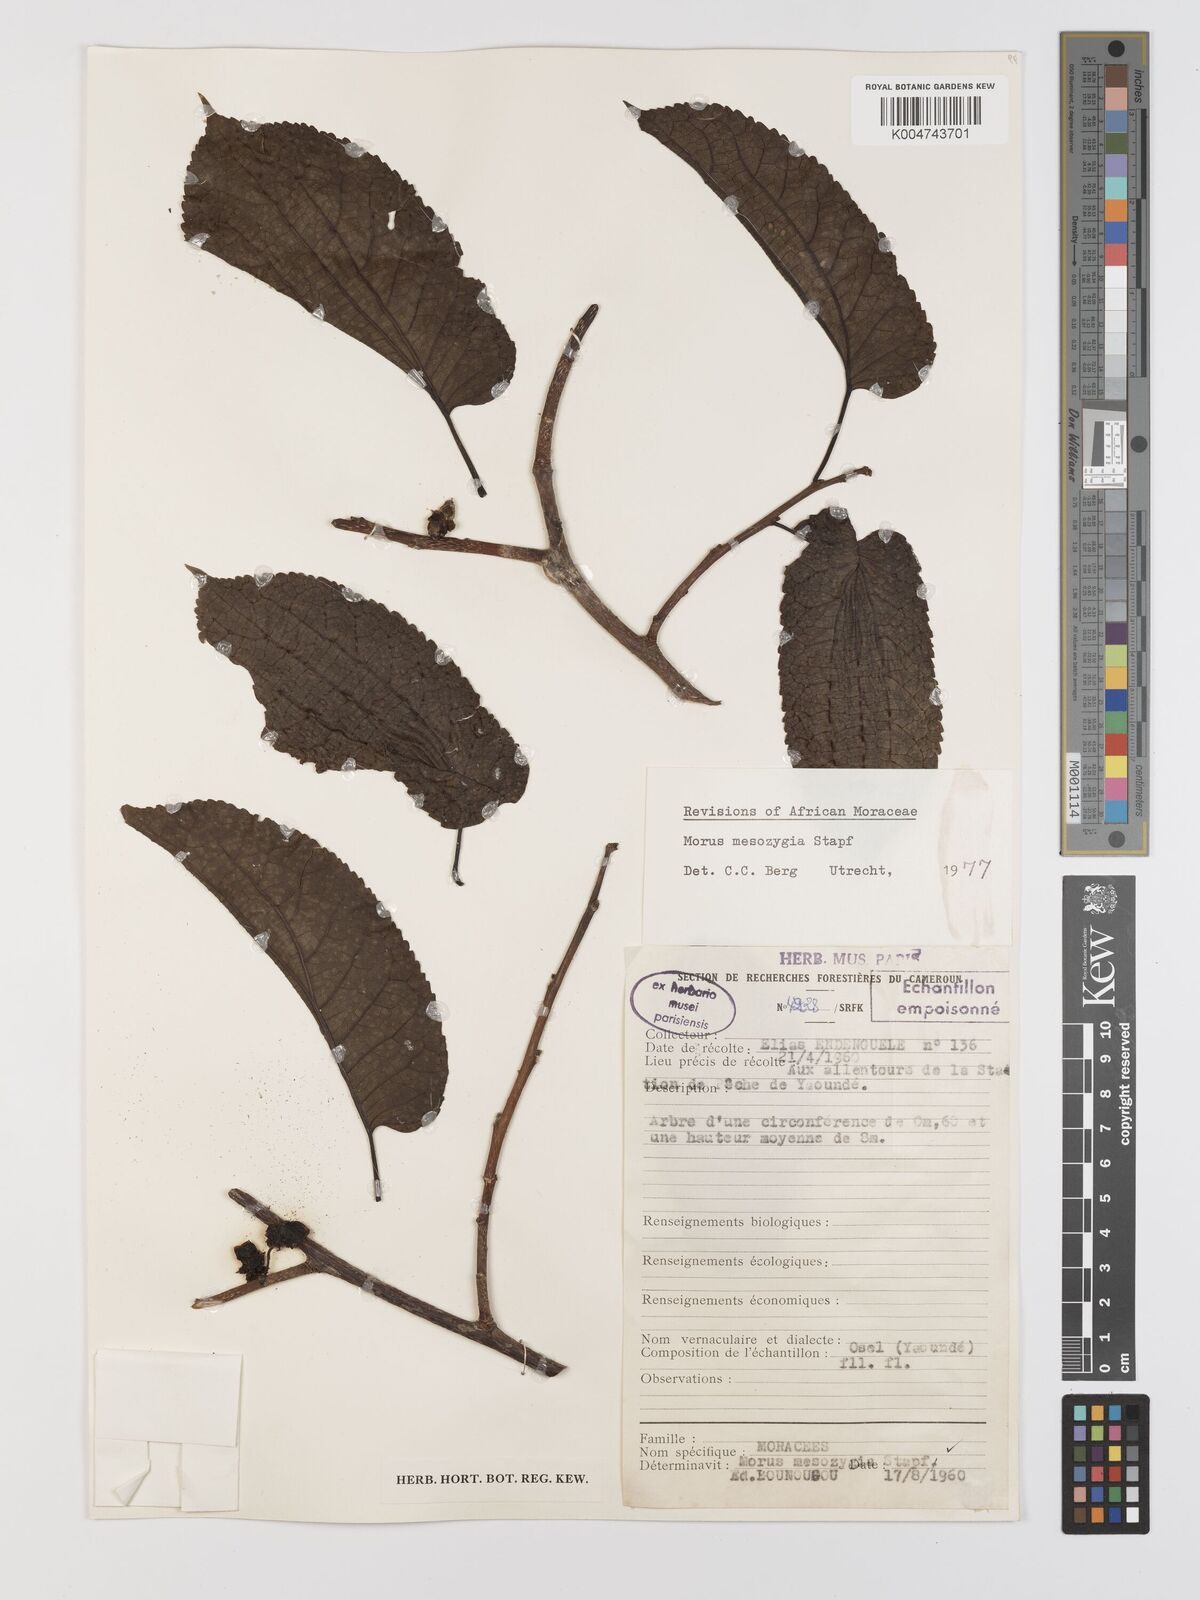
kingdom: Plantae
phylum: Tracheophyta
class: Magnoliopsida
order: Rosales
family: Moraceae
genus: Afromorus
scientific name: Afromorus mesozygia
